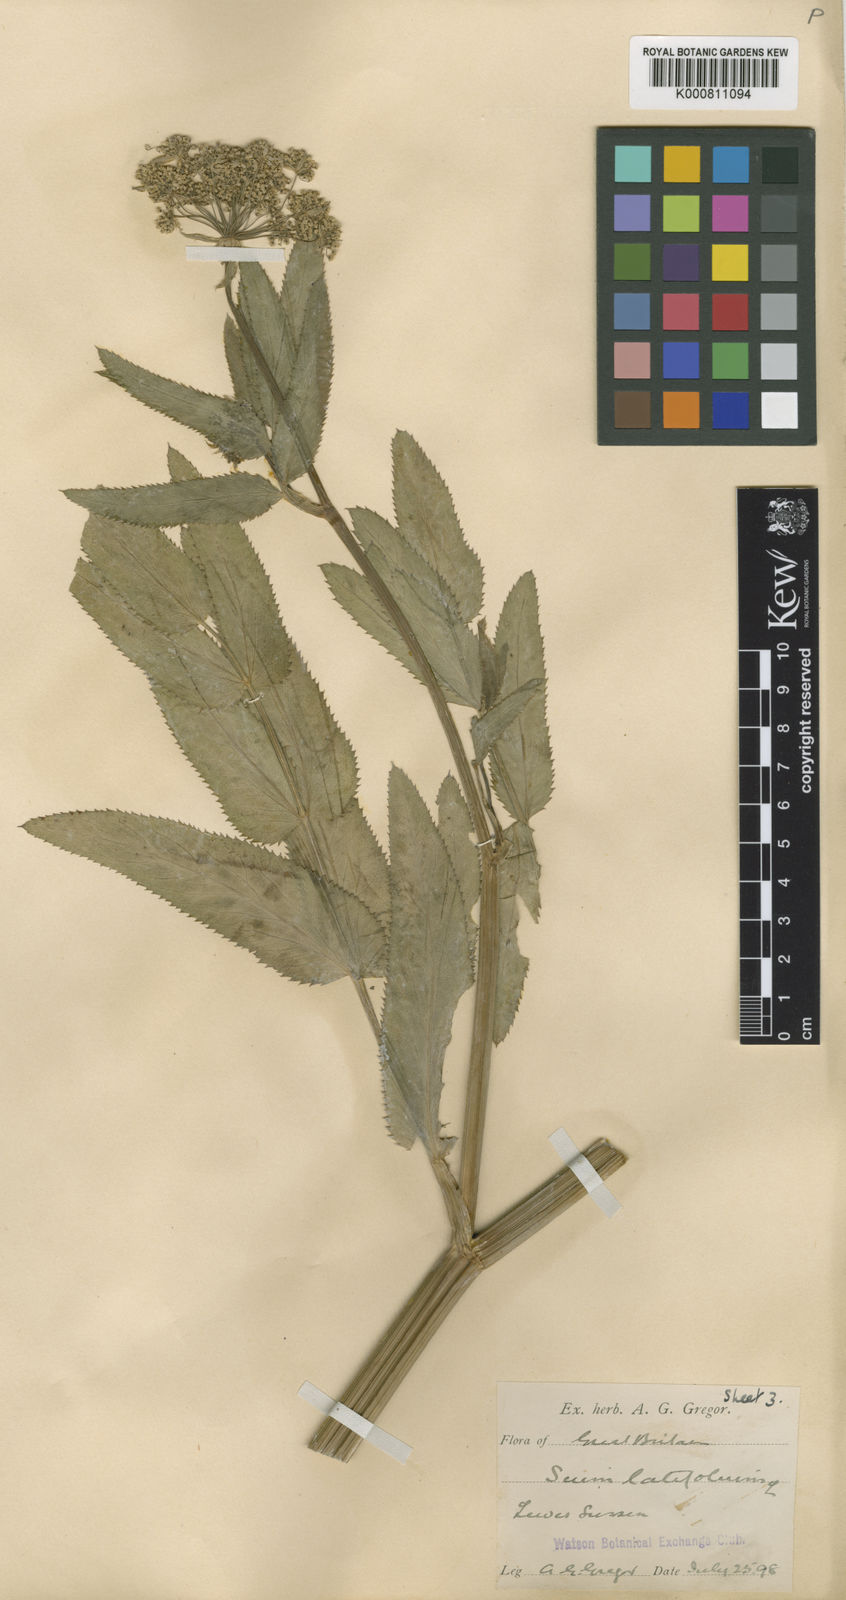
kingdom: Plantae
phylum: Tracheophyta
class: Magnoliopsida
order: Apiales
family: Apiaceae
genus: Sium
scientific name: Sium latifolium
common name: Greater water-parsnip
